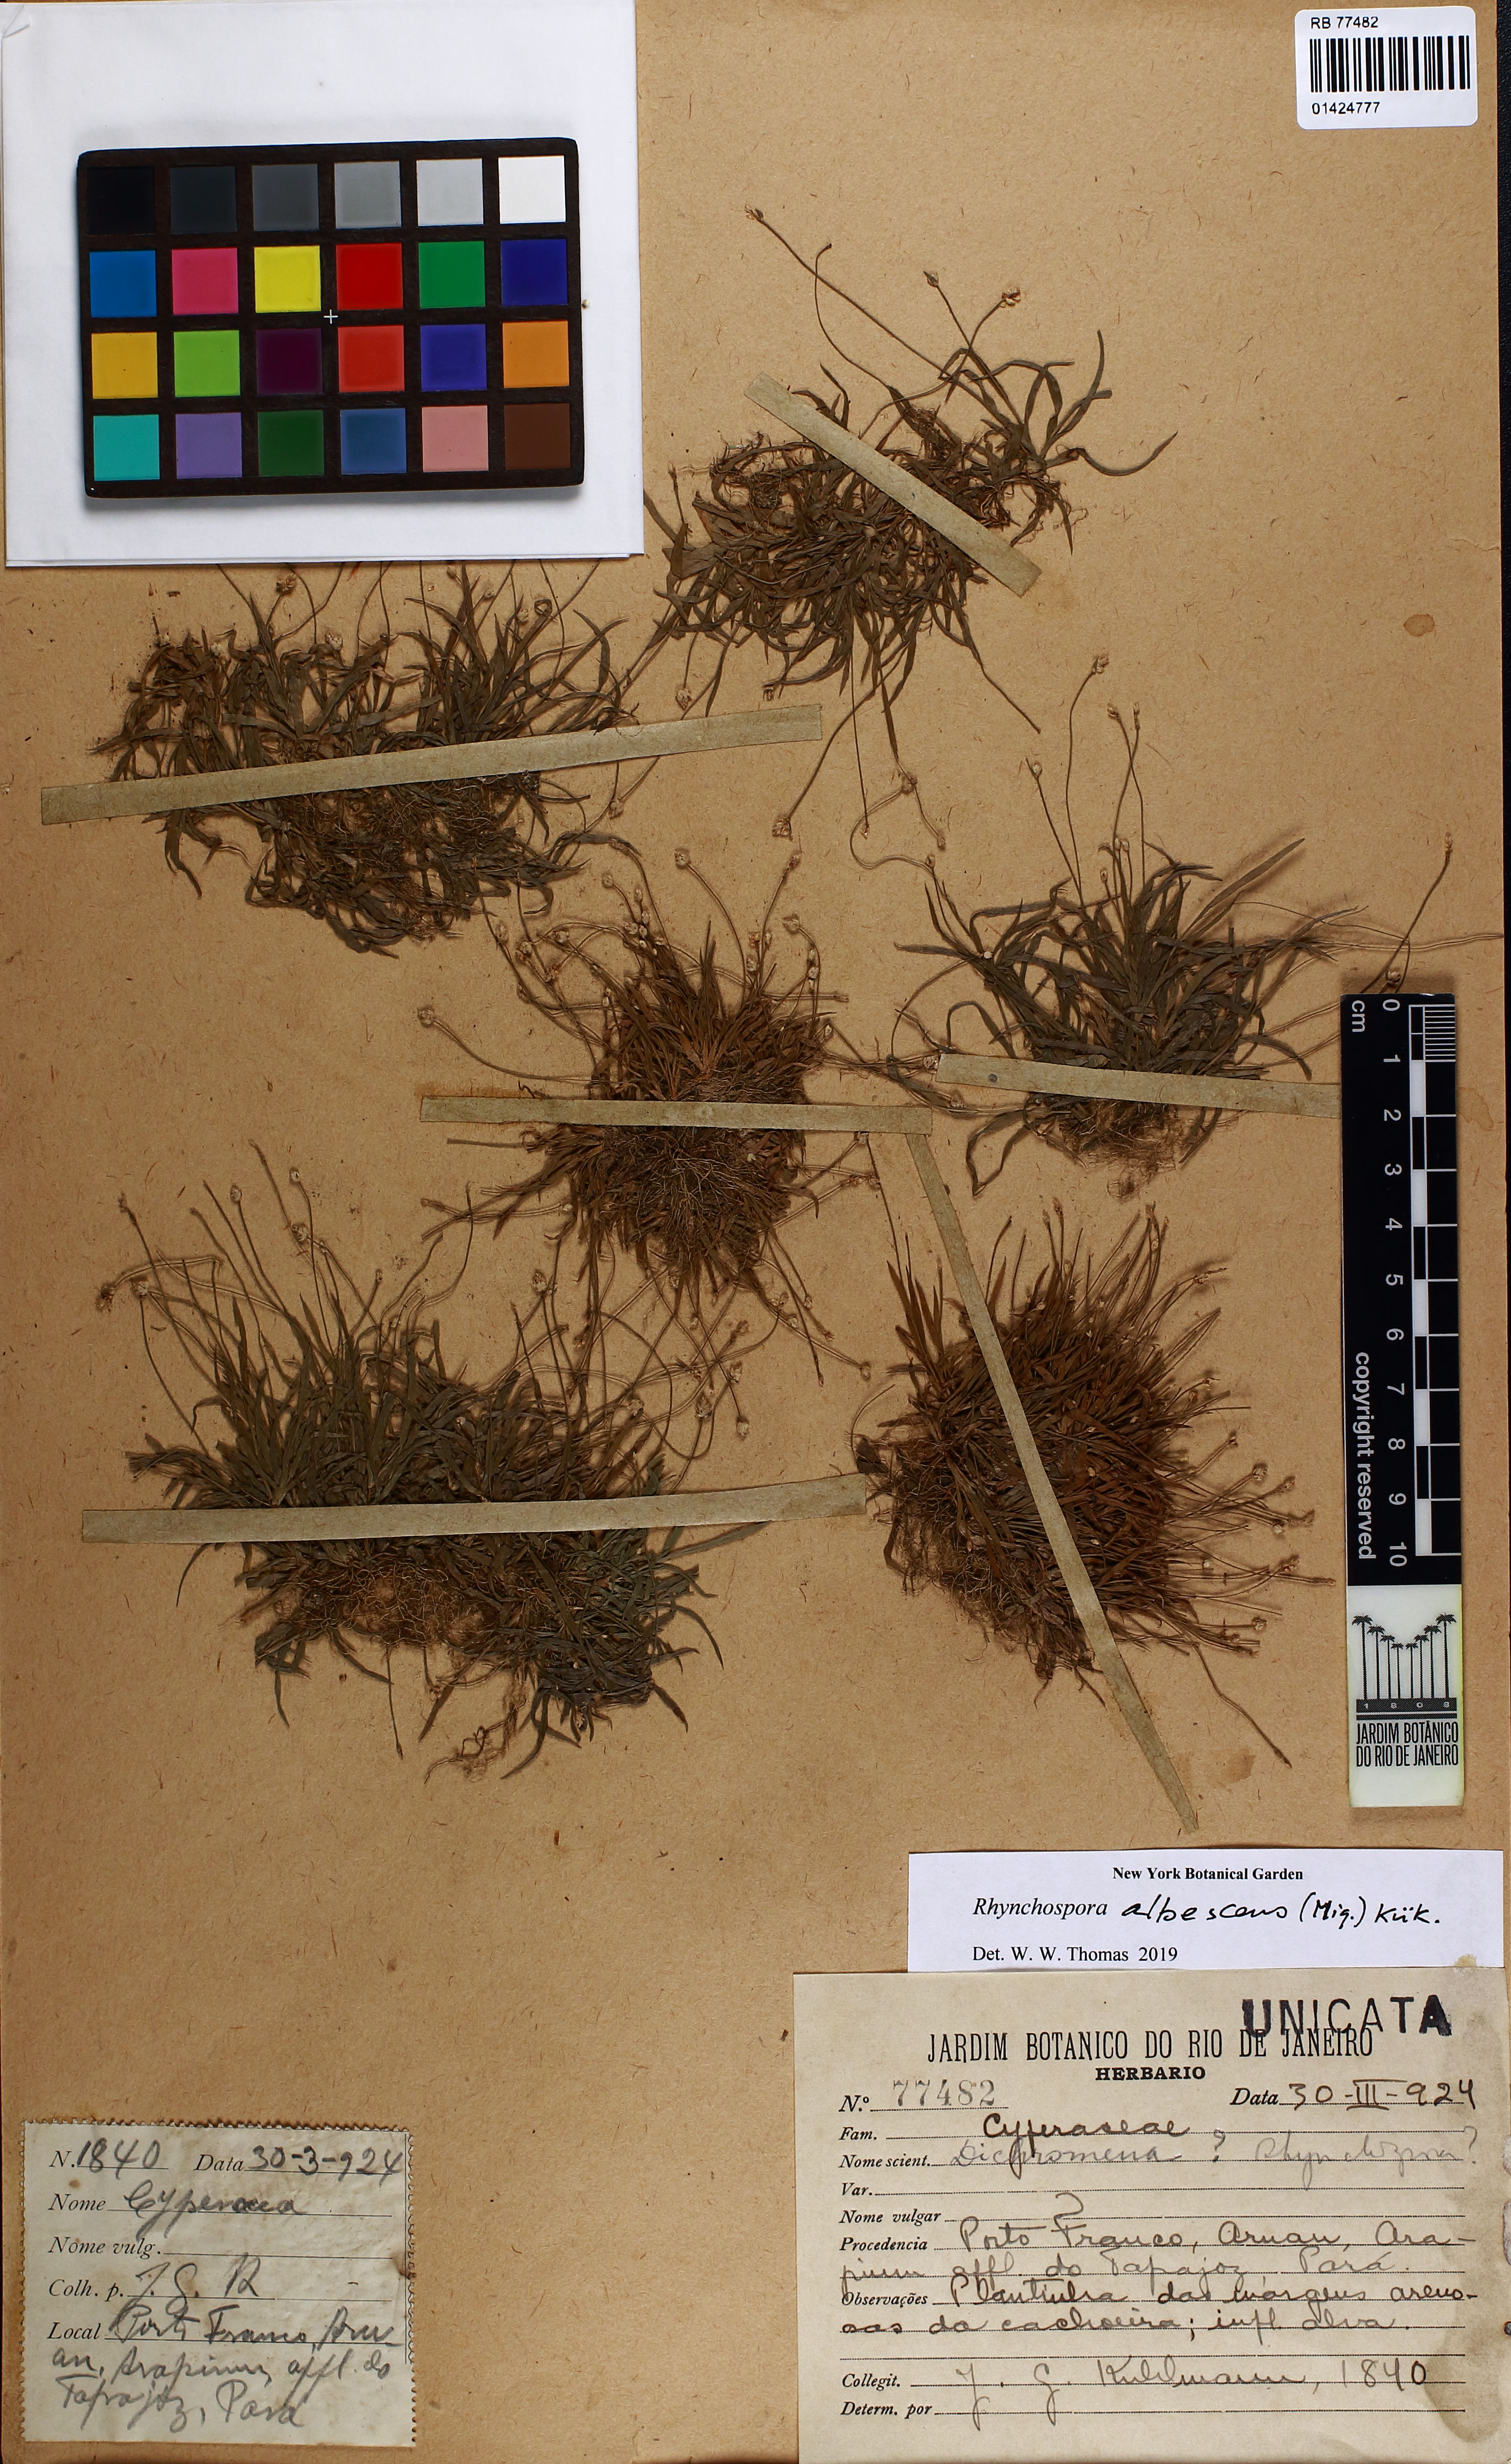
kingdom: Plantae
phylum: Tracheophyta
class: Liliopsida
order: Poales
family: Cyperaceae
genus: Rhynchospora
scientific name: Rhynchospora albescens
